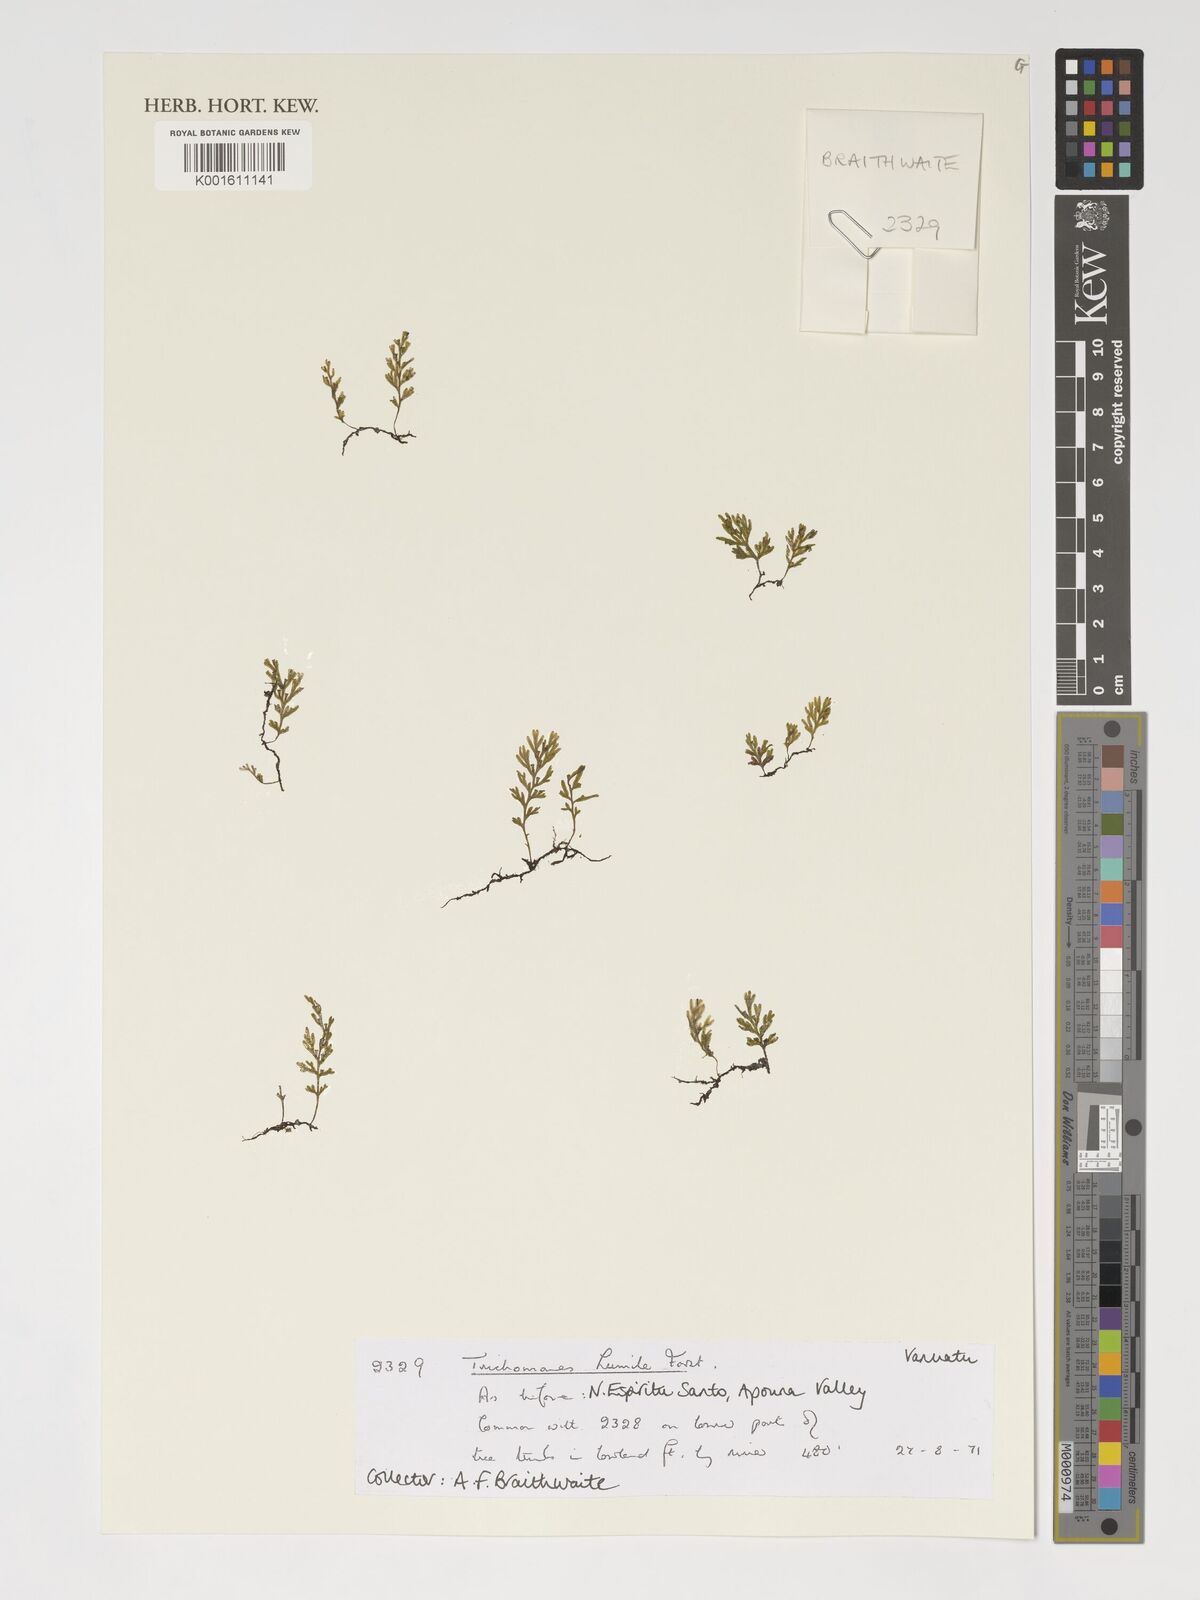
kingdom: Plantae
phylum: Tracheophyta
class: Polypodiopsida
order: Hymenophyllales
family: Hymenophyllaceae
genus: Crepidomanes
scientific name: Crepidomanes humile
